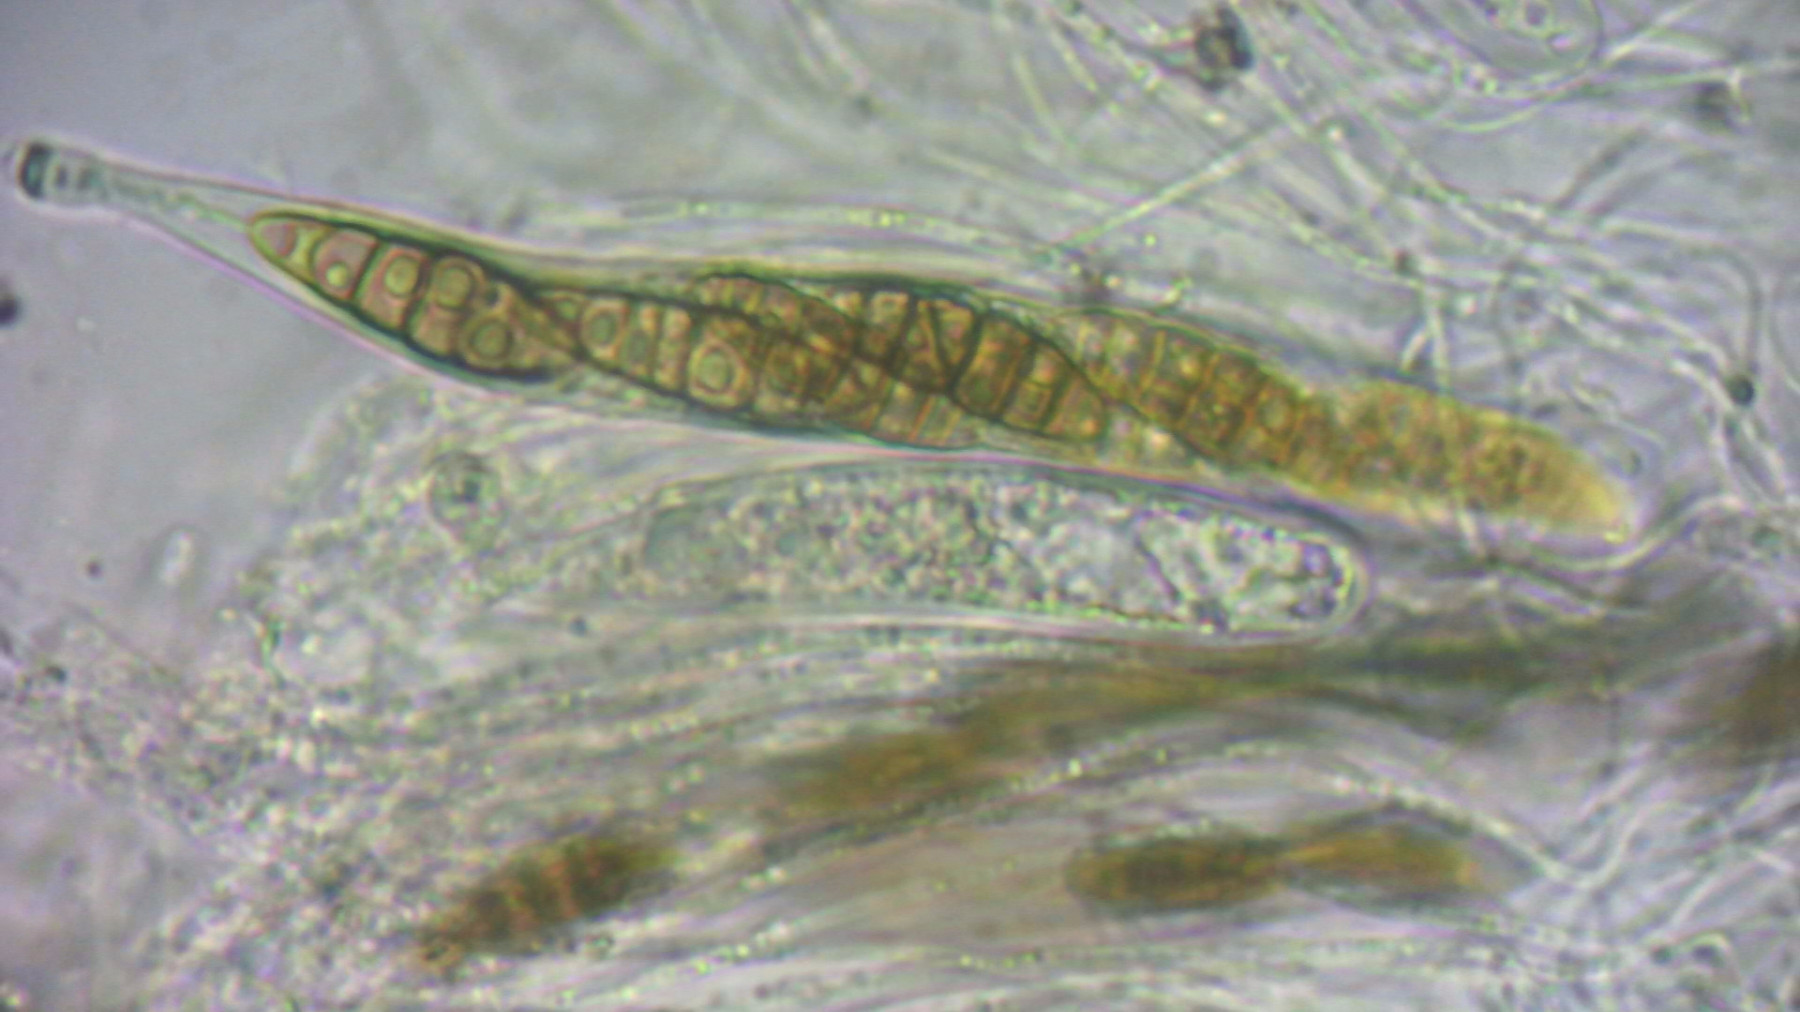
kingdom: Fungi
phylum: Ascomycota
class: Dothideomycetes
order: Pleosporales
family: Lophiostomataceae
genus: Lophiostoma
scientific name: Lophiostoma compressum
